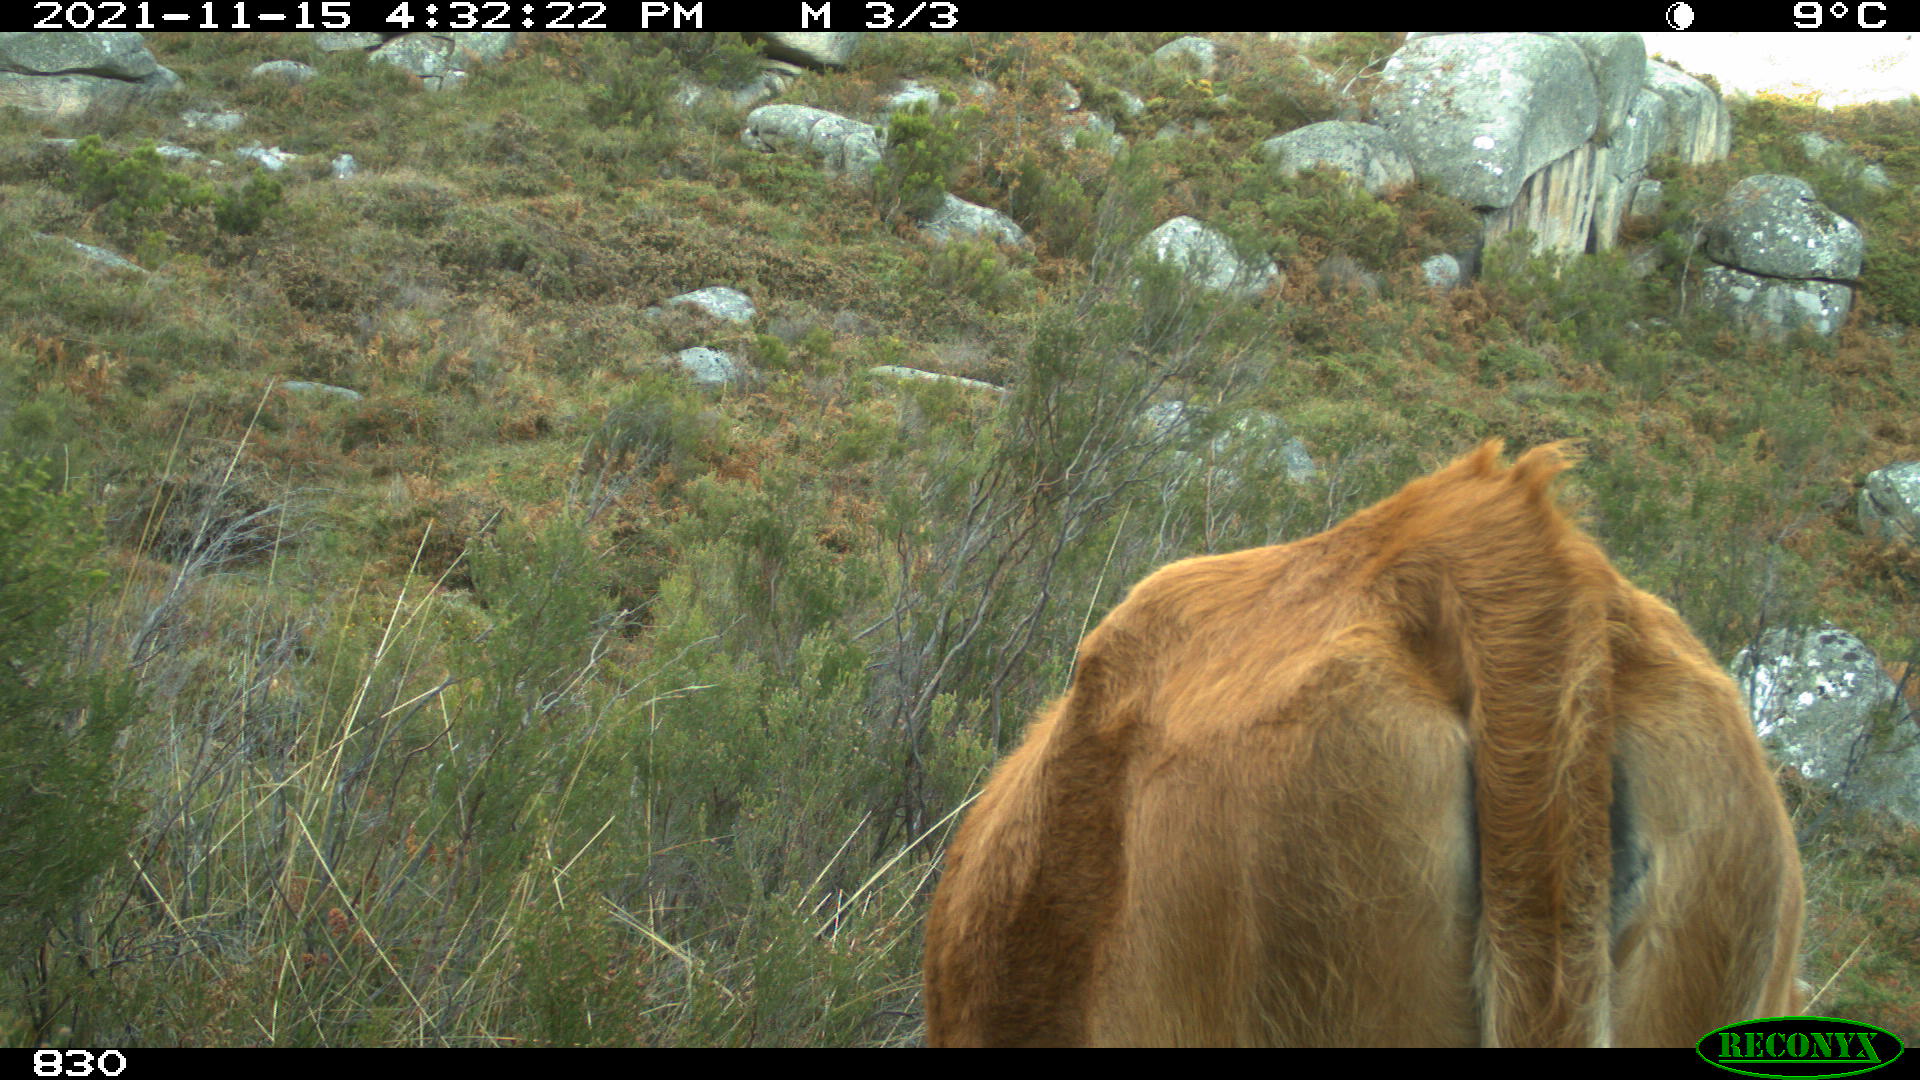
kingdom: Animalia
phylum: Chordata
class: Mammalia
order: Artiodactyla
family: Bovidae
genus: Bos
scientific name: Bos taurus
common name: Domesticated cattle
